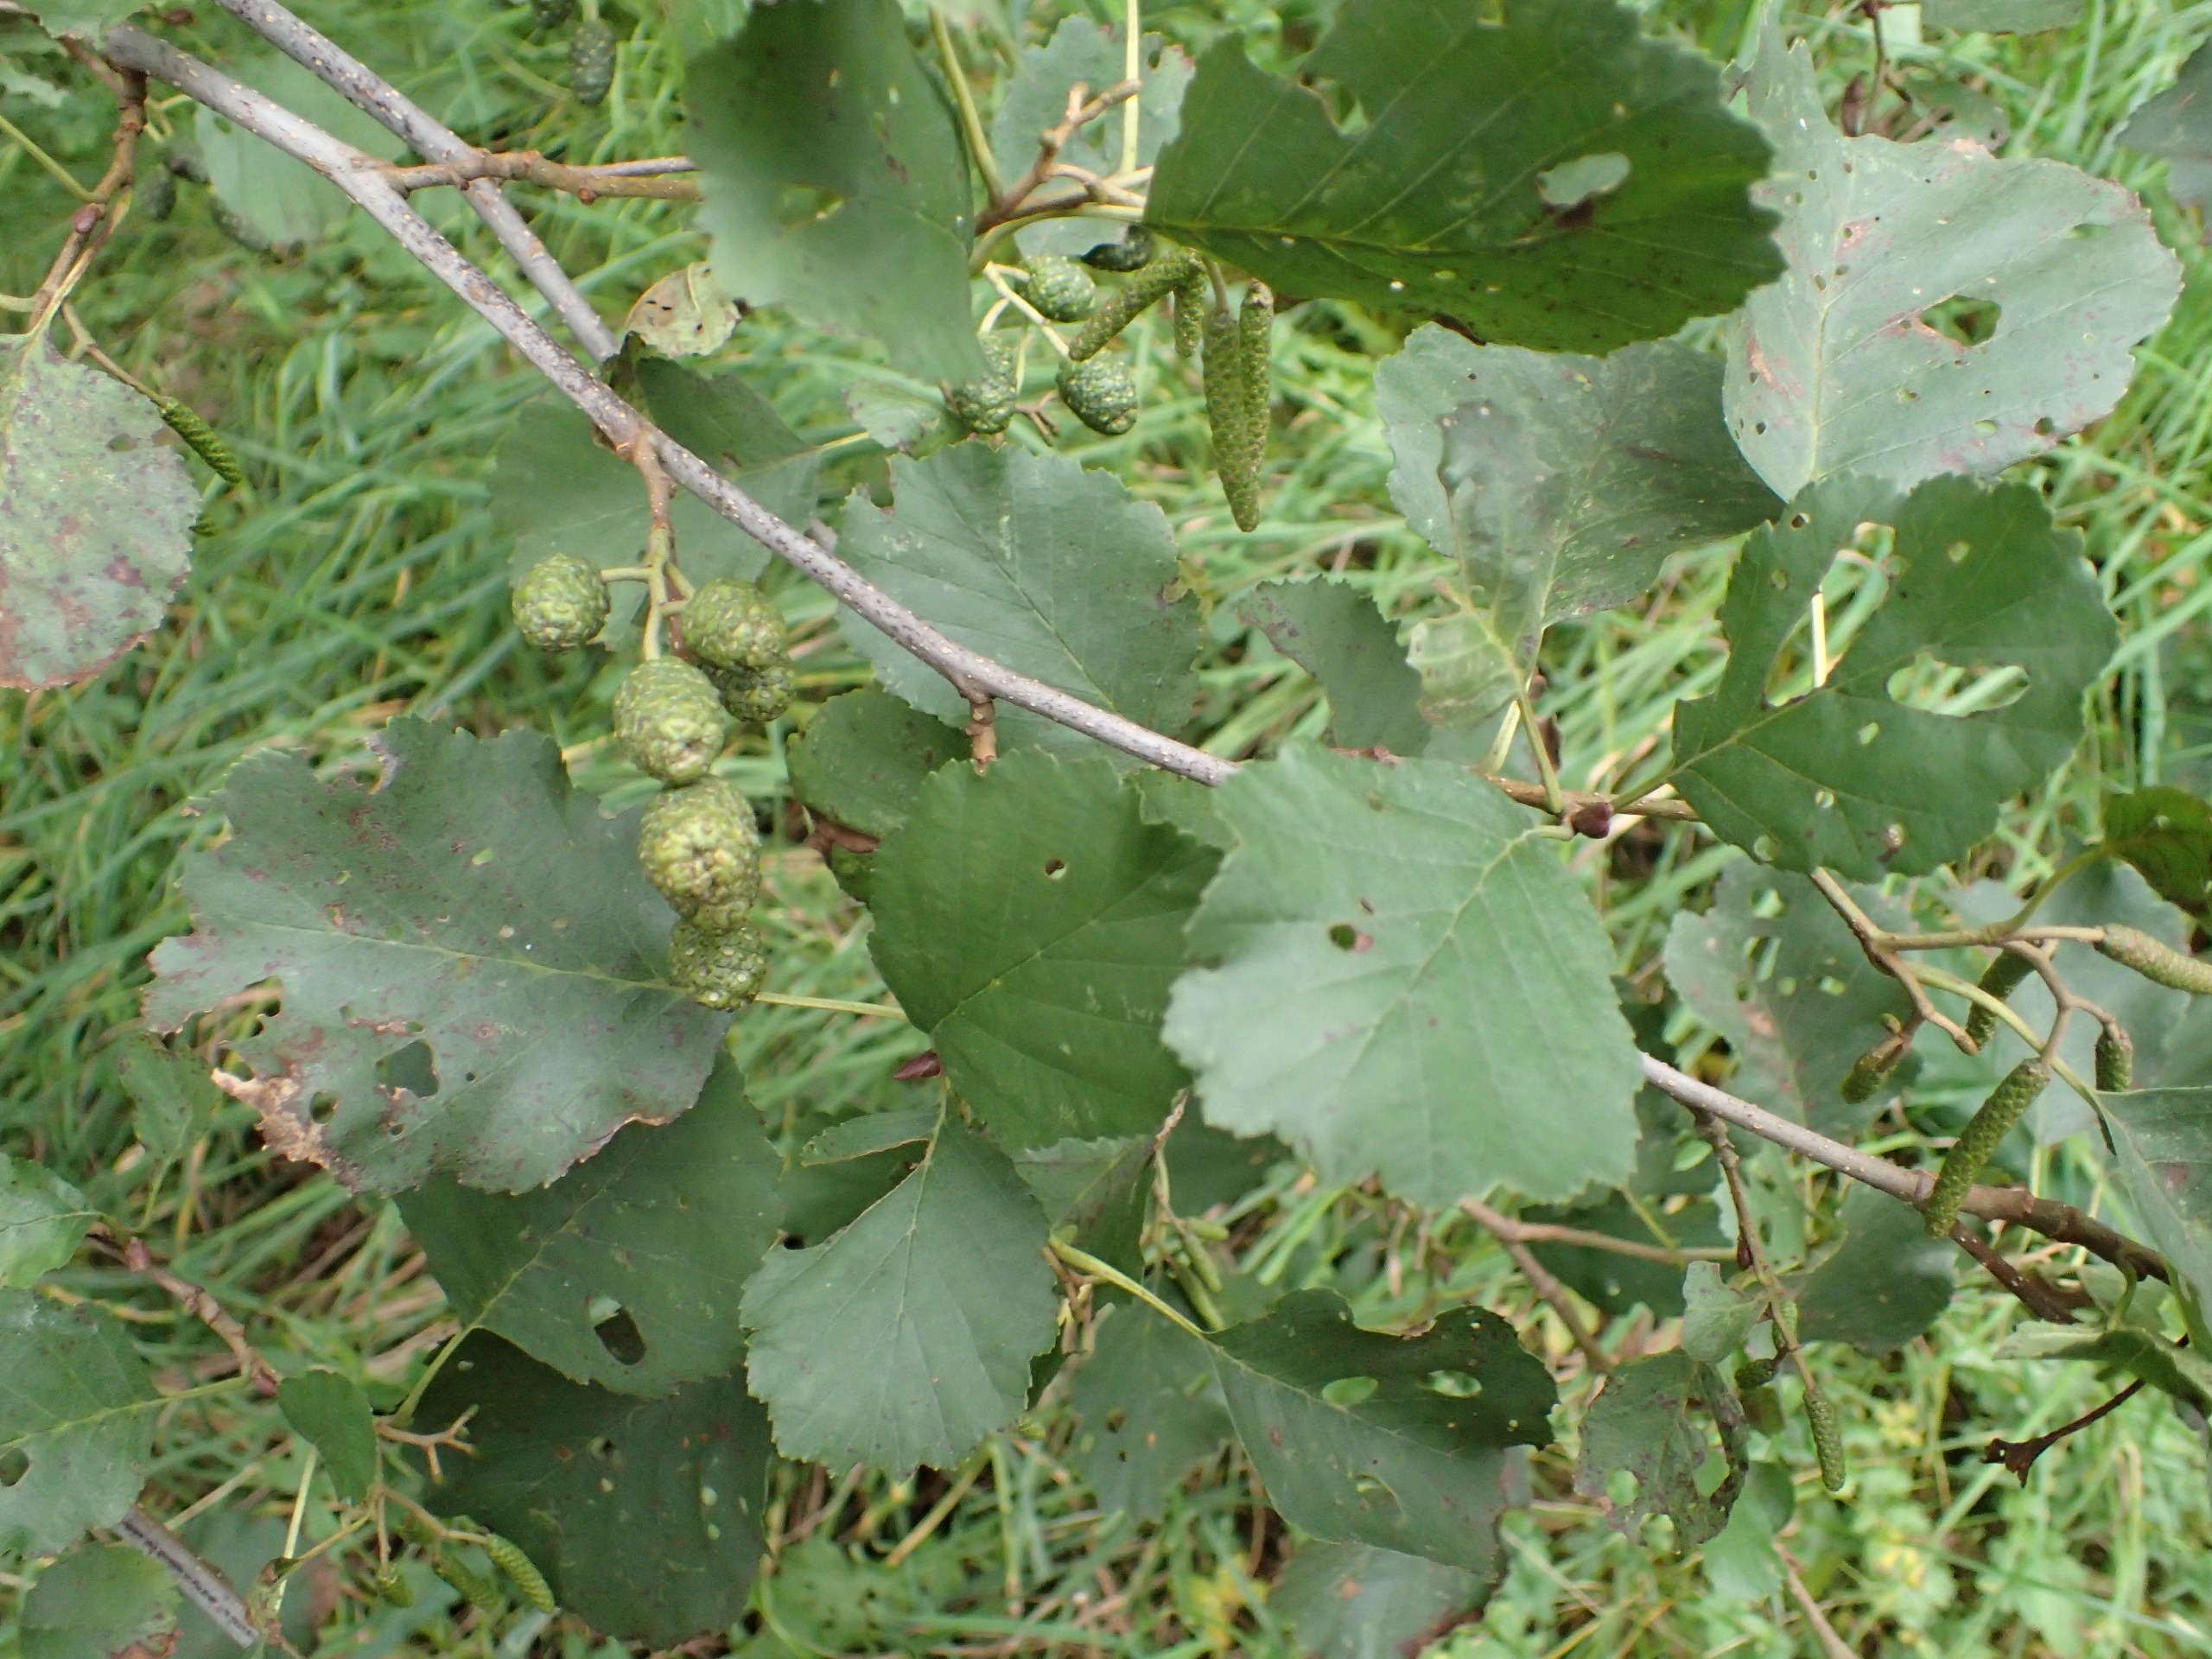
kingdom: Plantae
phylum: Tracheophyta
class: Magnoliopsida
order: Fagales
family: Betulaceae
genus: Alnus
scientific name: Alnus glutinosa
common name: Rød-el
